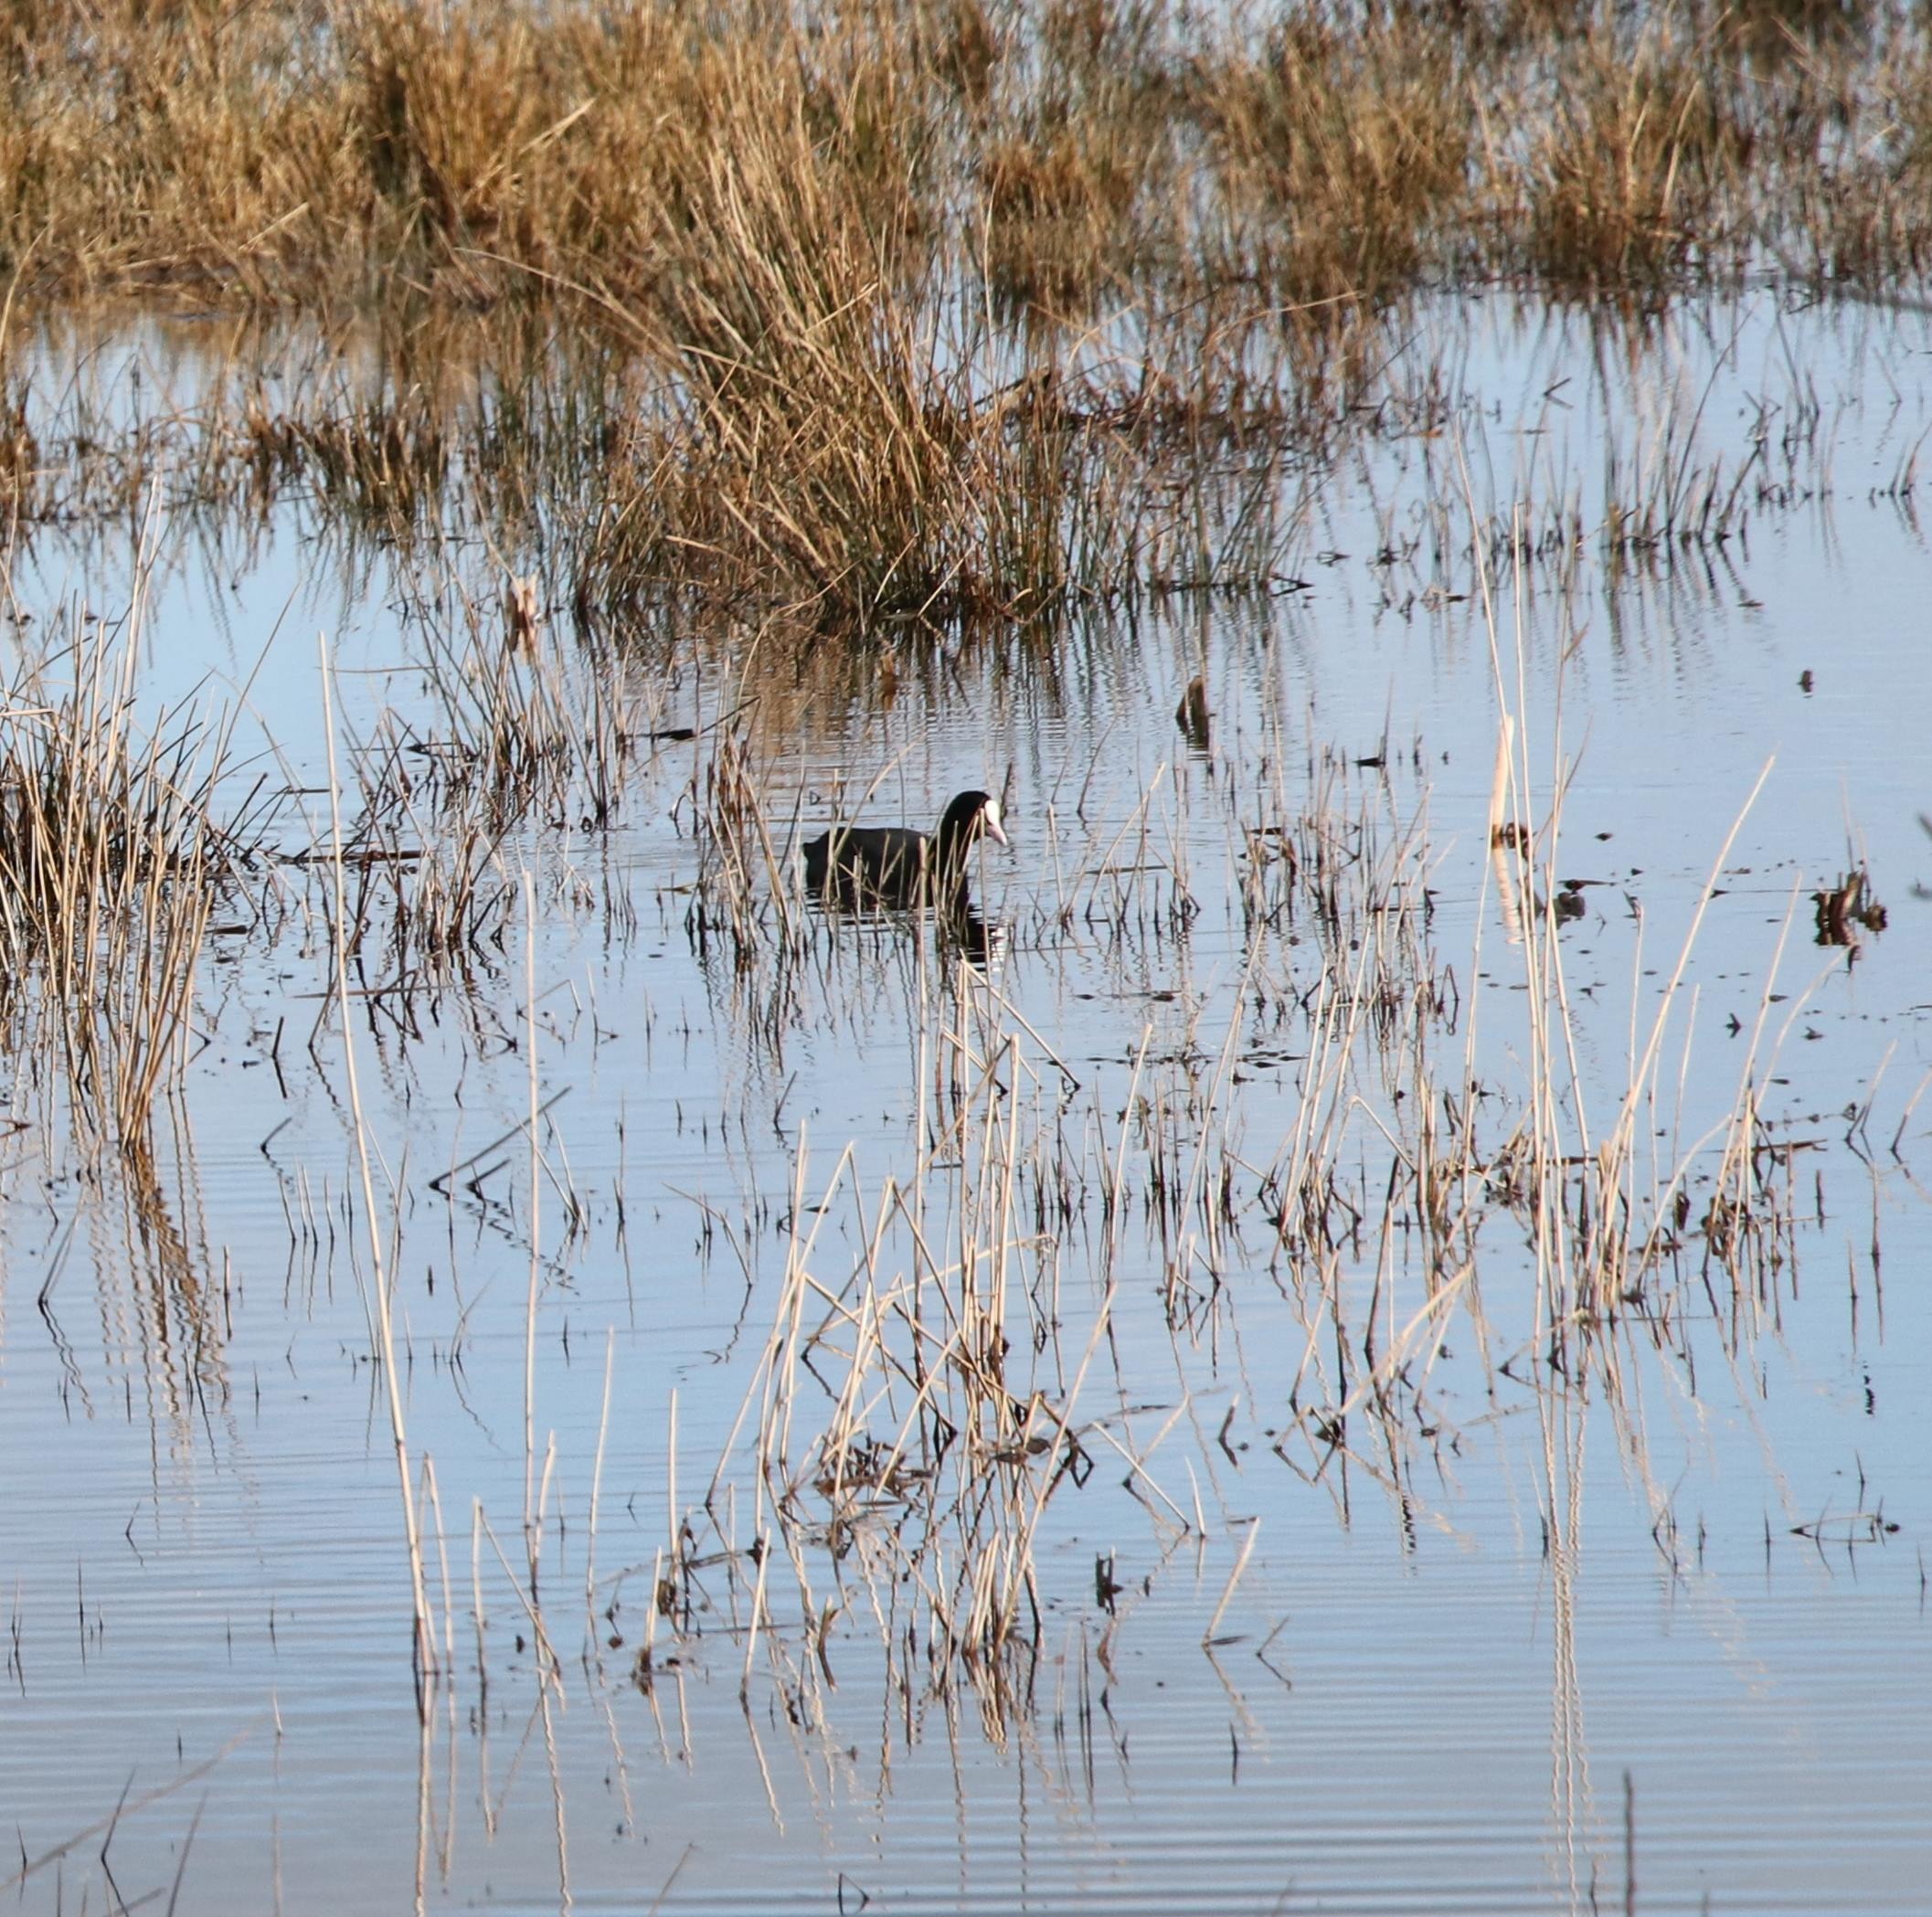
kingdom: Animalia
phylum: Chordata
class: Aves
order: Gruiformes
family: Rallidae
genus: Fulica
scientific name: Fulica atra
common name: Blishøne
